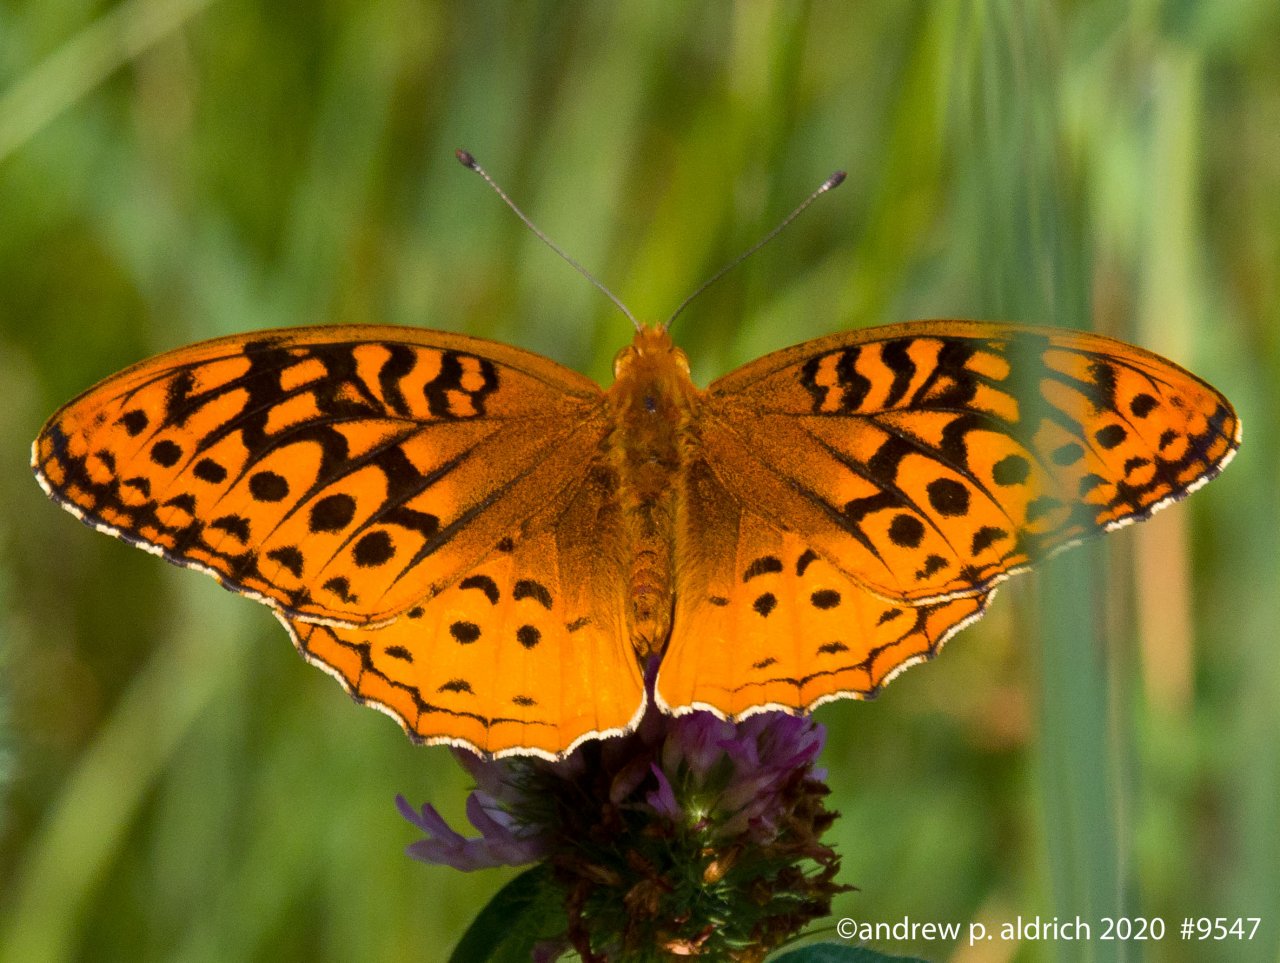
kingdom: Animalia
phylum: Arthropoda
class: Insecta
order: Lepidoptera
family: Nymphalidae
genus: Speyeria
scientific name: Speyeria cybele
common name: Great Spangled Fritillary
